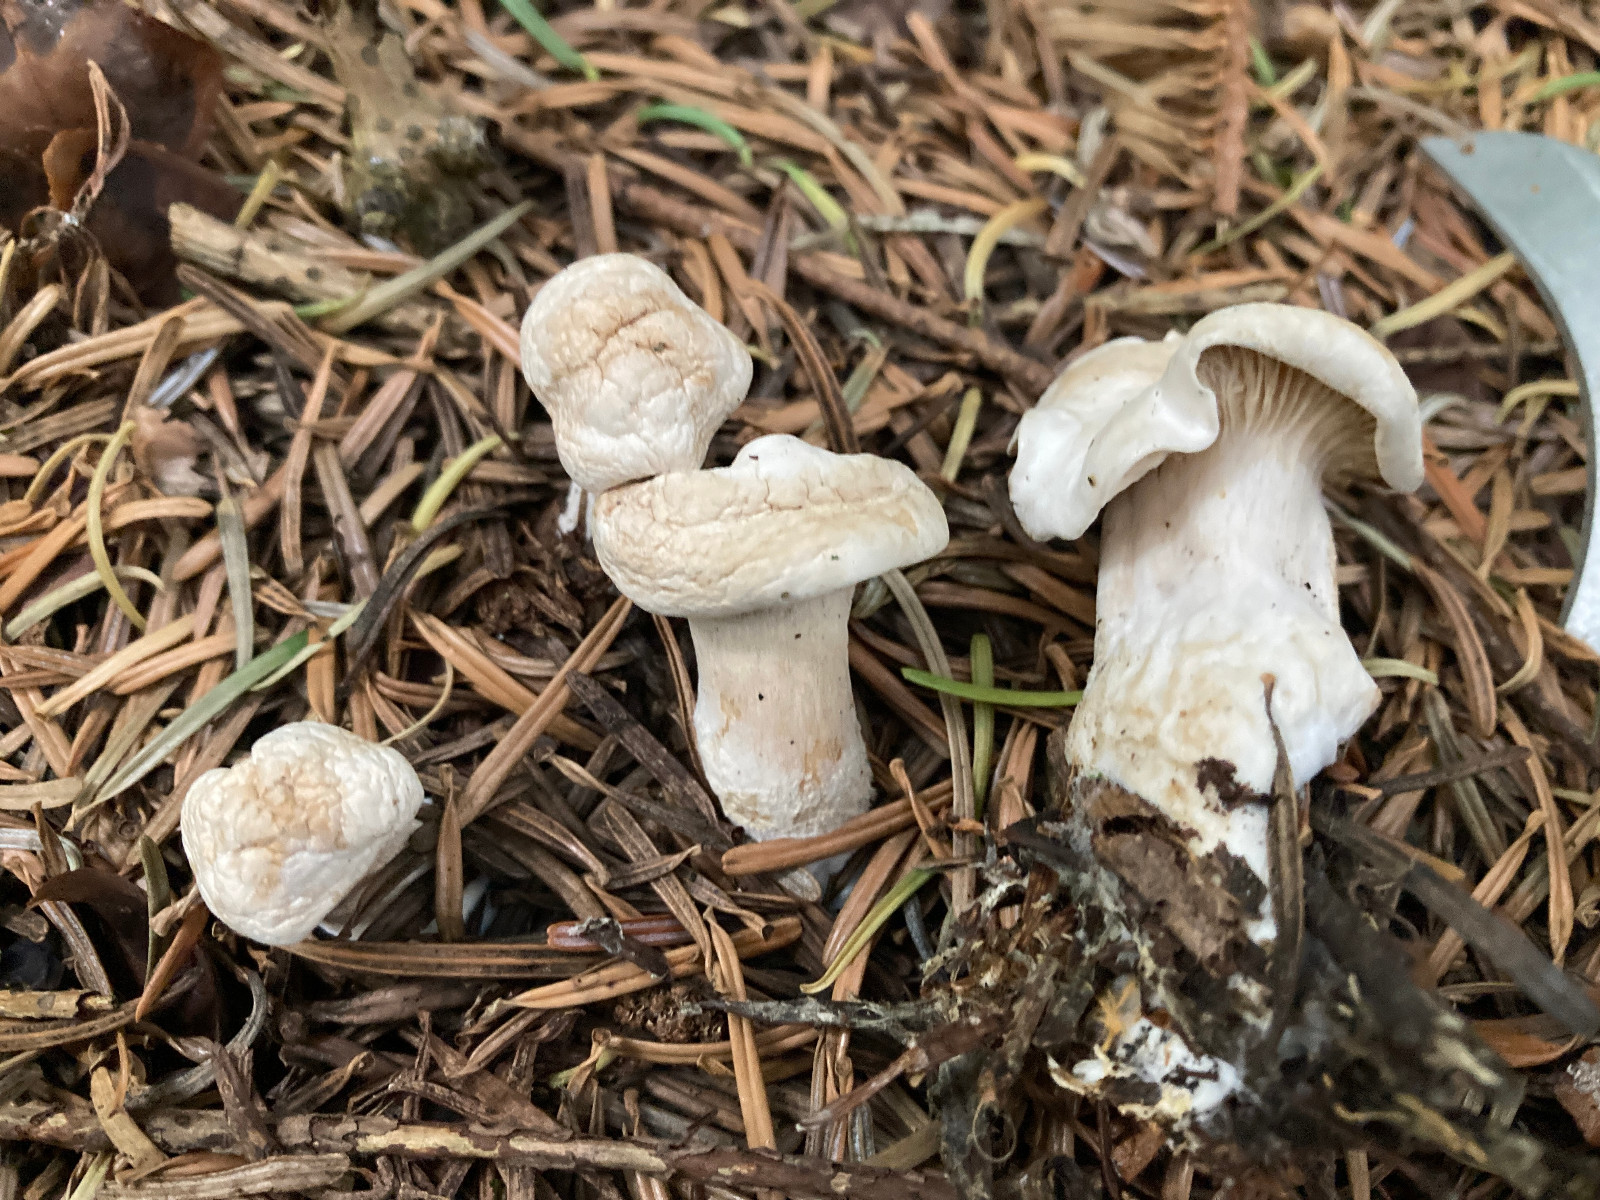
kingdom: Fungi
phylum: Basidiomycota
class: Agaricomycetes
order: Agaricales
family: Tricholomataceae
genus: Clitocybe
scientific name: Clitocybe phyllophila
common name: løv-tragthat
